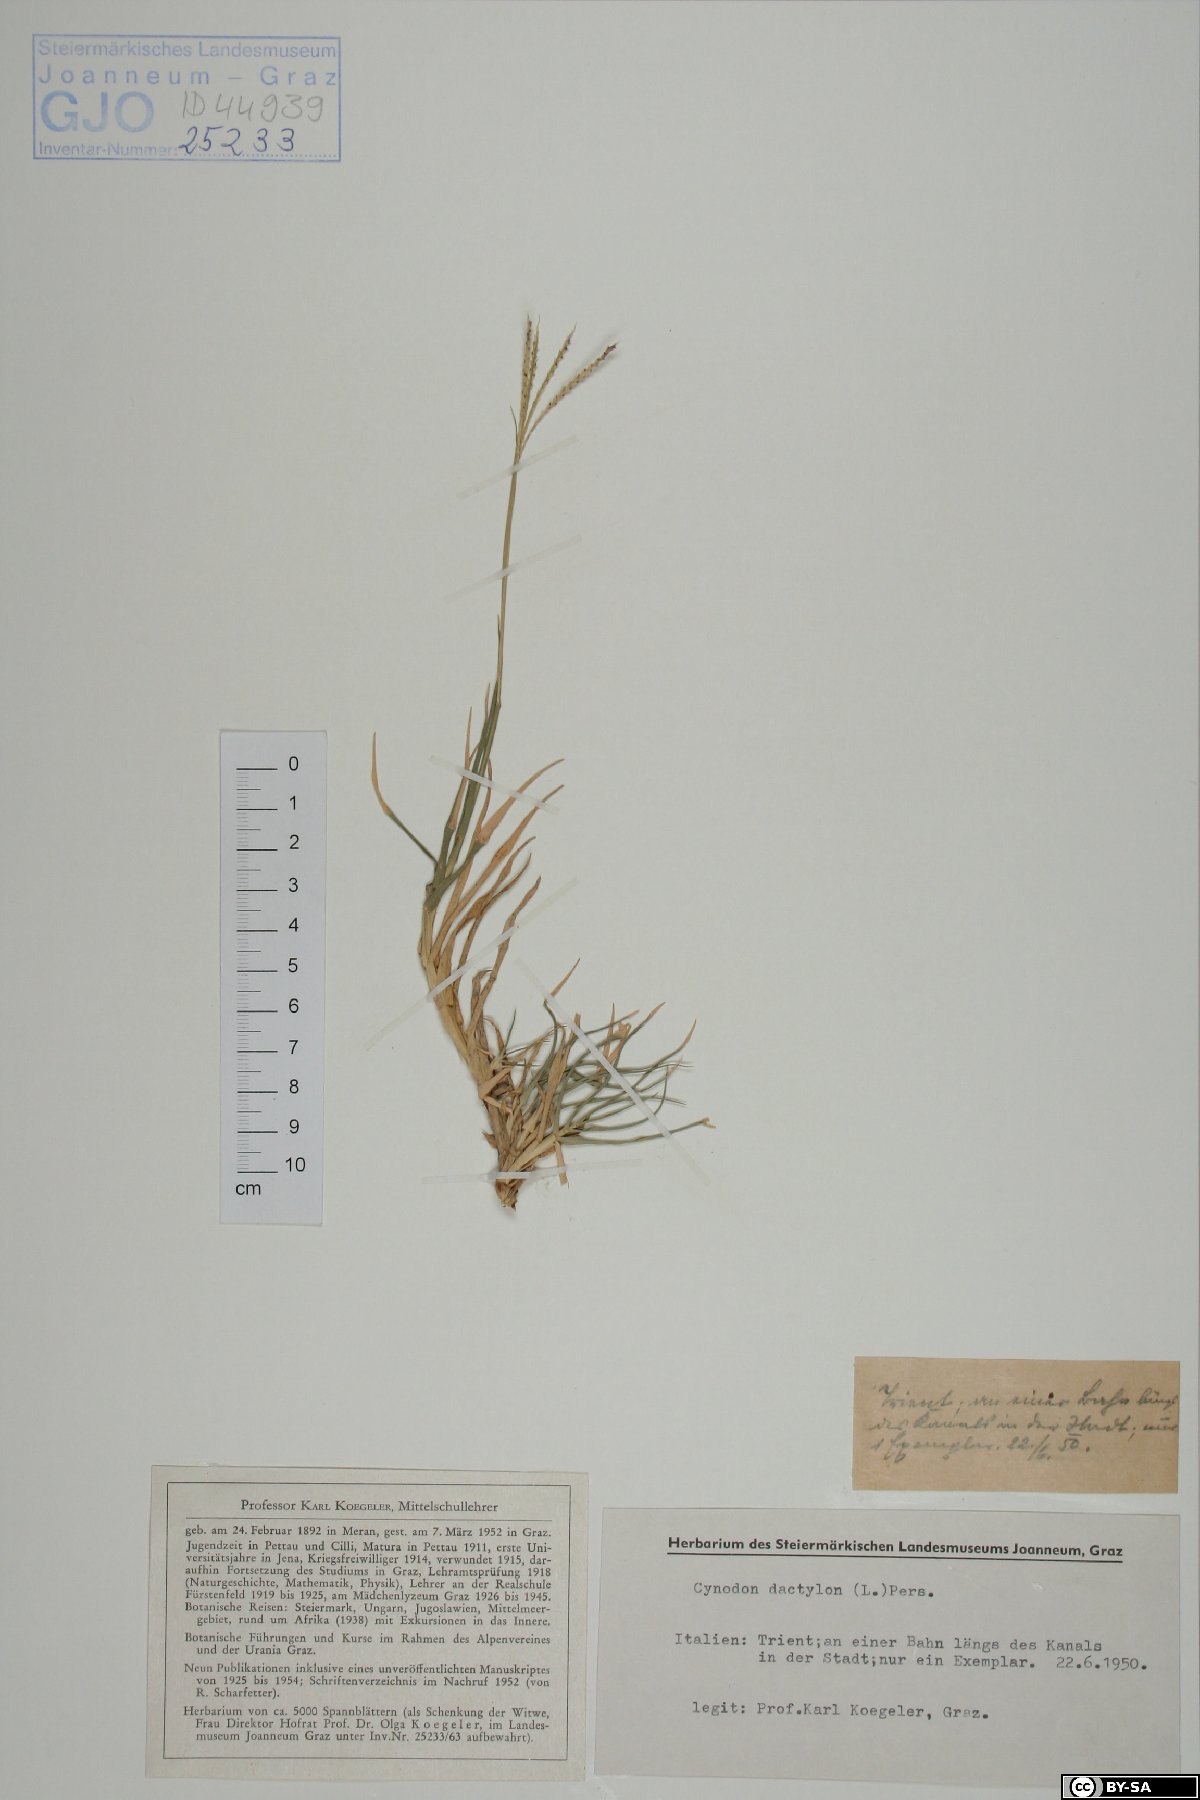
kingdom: Plantae
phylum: Tracheophyta
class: Liliopsida
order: Poales
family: Poaceae
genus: Cynodon
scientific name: Cynodon dactylon
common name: Bermuda grass
